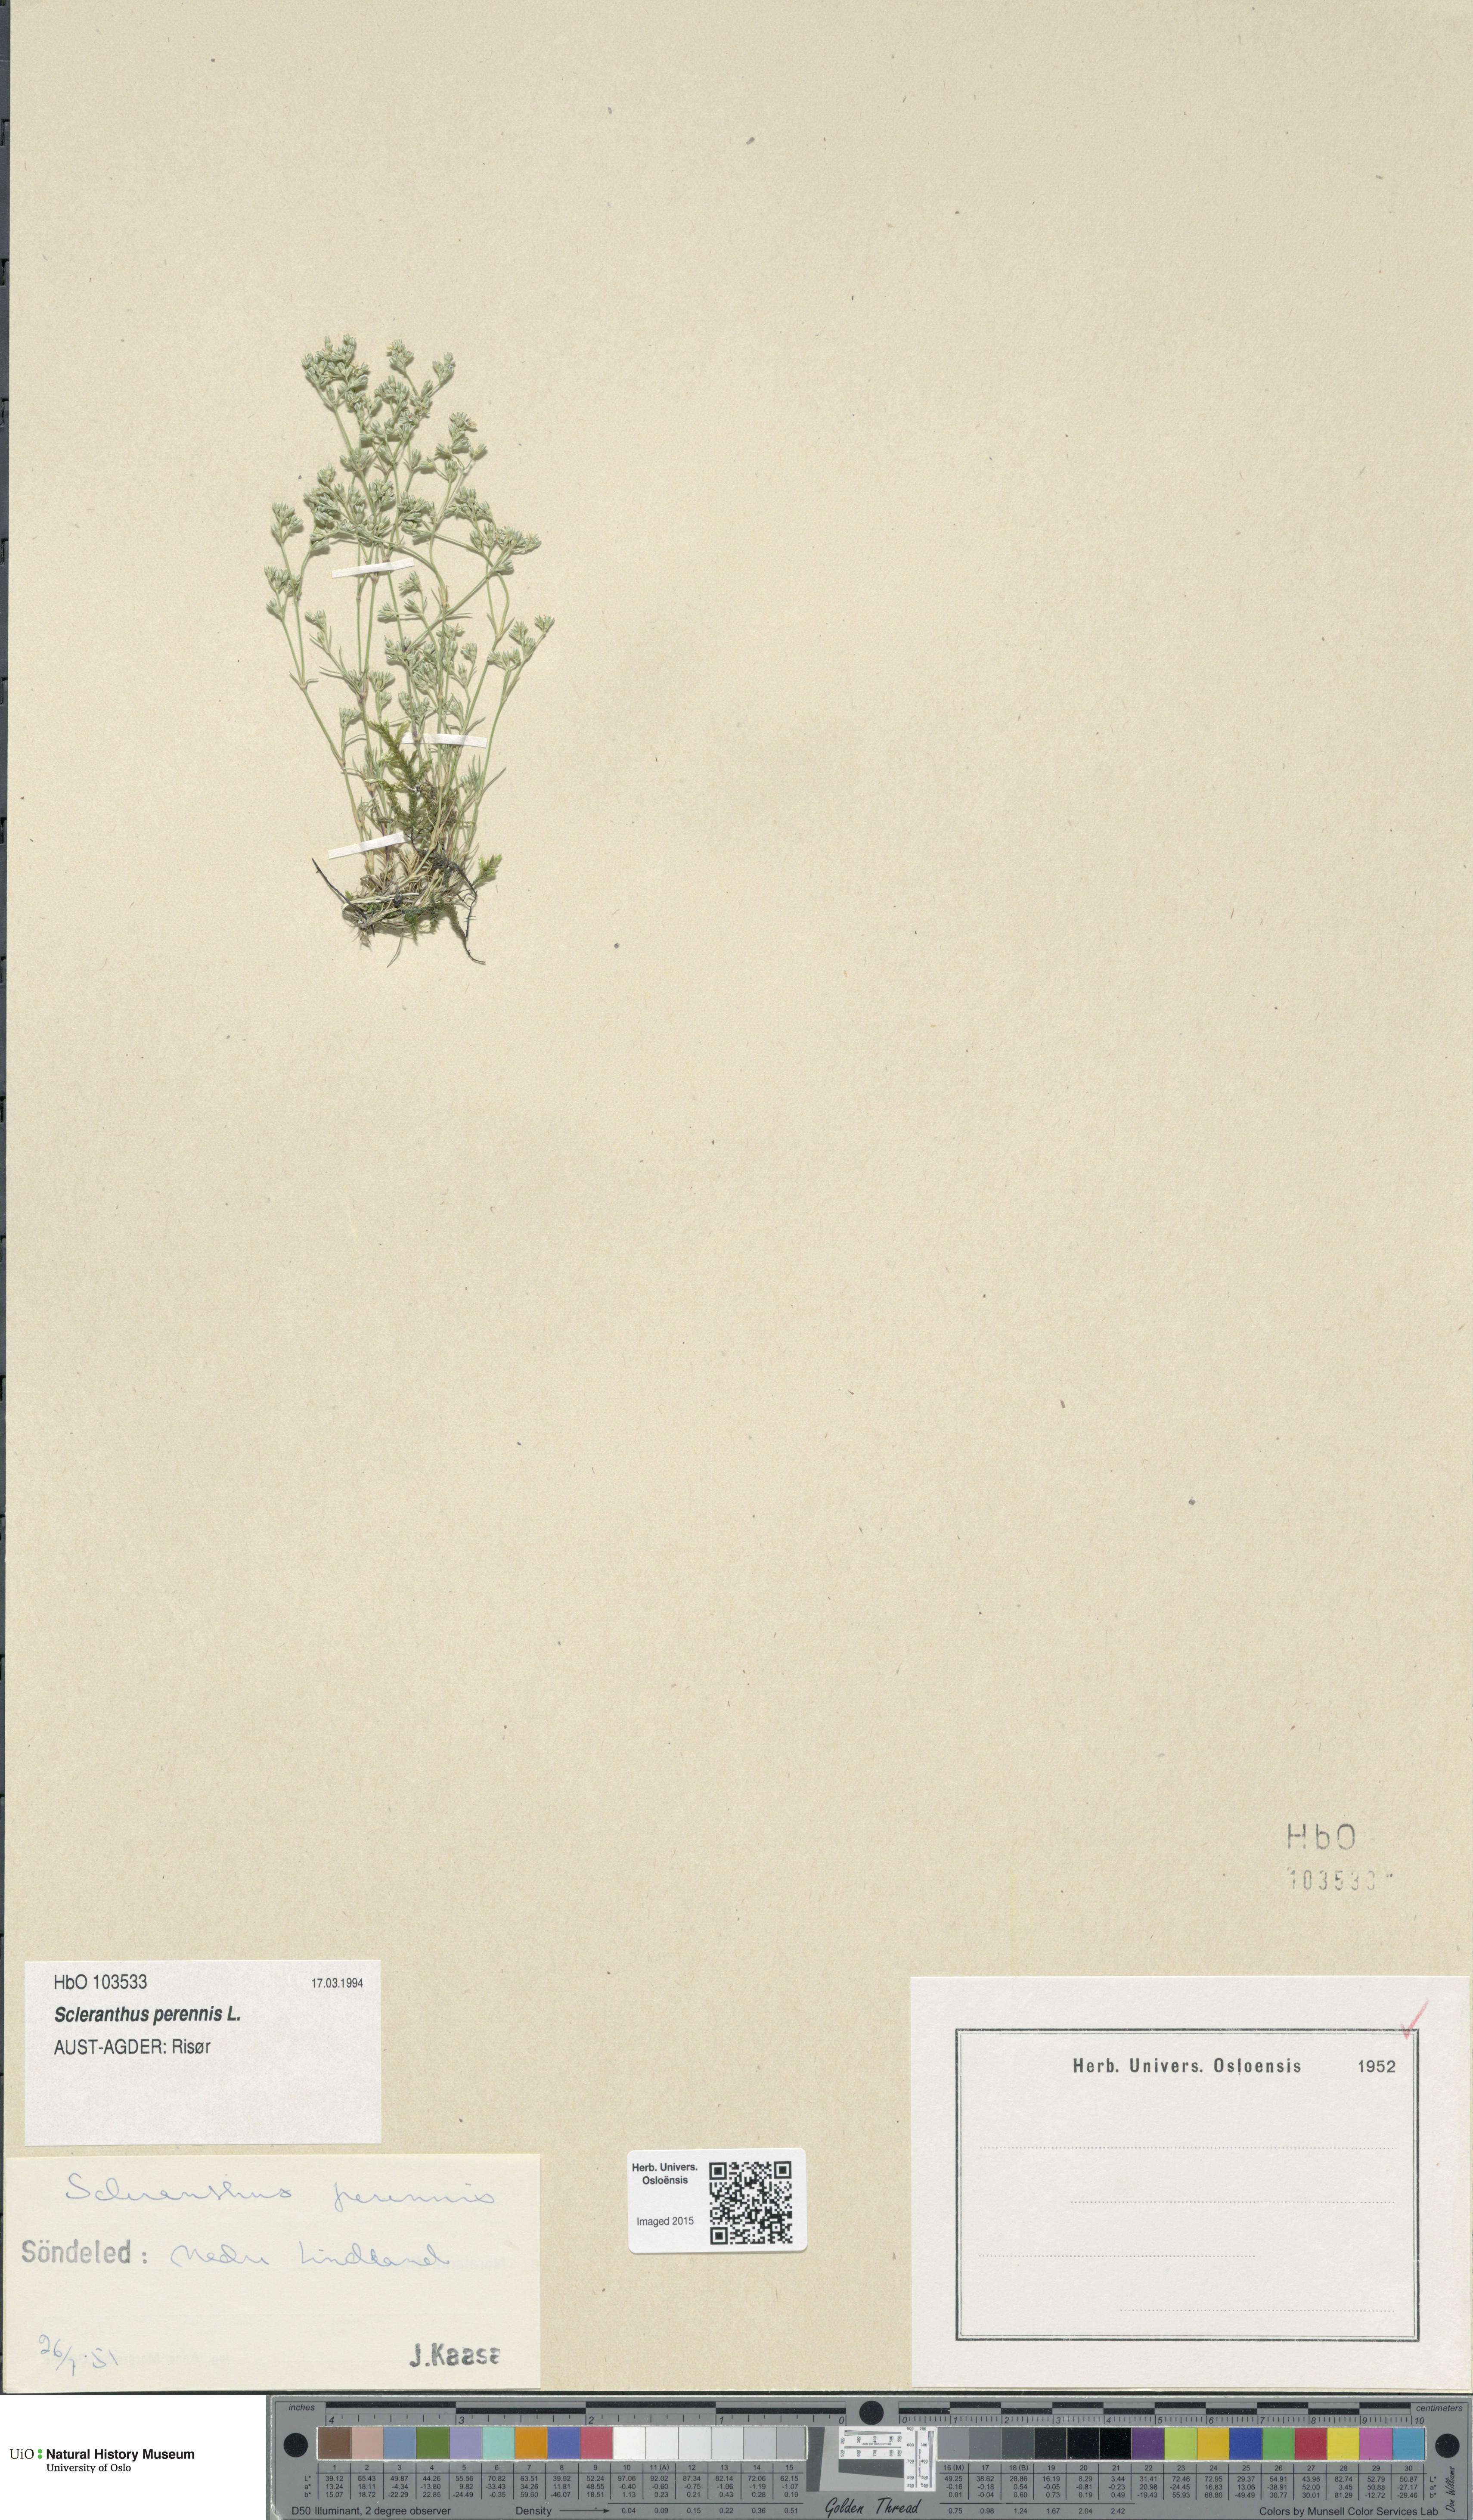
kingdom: Plantae
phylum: Tracheophyta
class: Magnoliopsida
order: Caryophyllales
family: Caryophyllaceae
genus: Scleranthus
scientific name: Scleranthus perennis
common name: Perennial knawel
